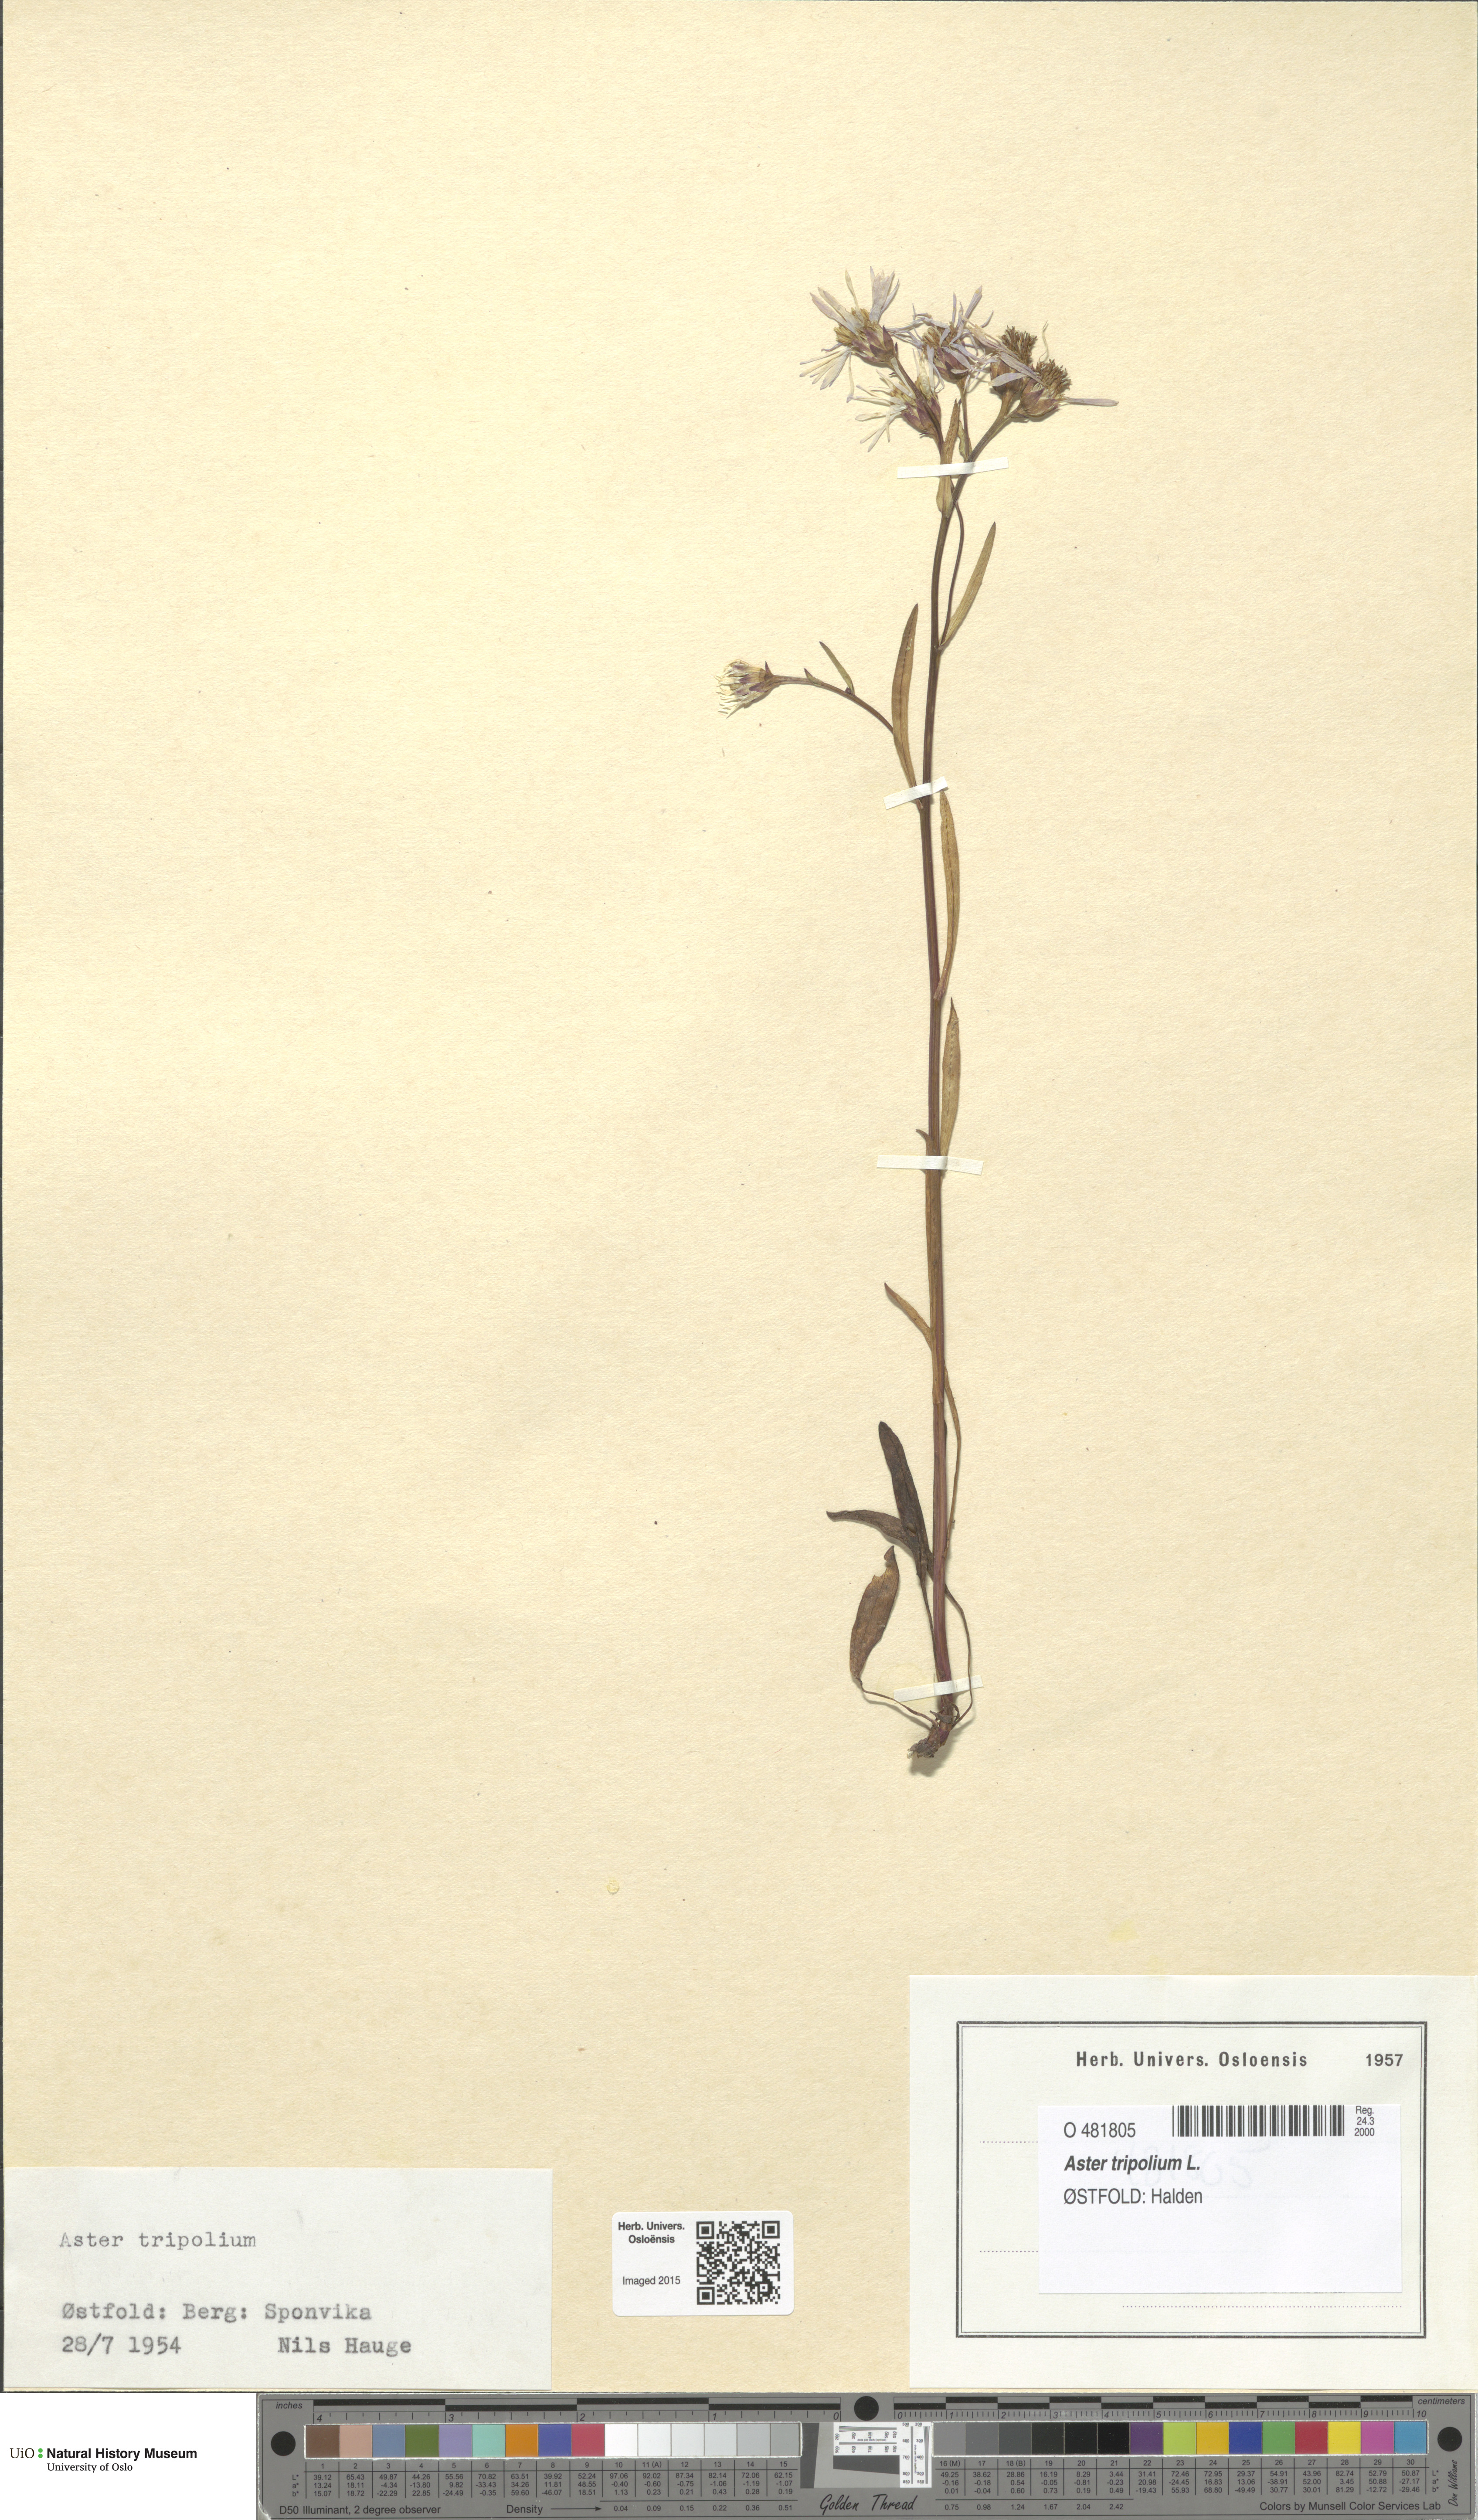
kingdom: Plantae
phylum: Tracheophyta
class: Magnoliopsida
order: Asterales
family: Asteraceae
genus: Tripolium
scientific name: Tripolium pannonicum
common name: Sea aster
